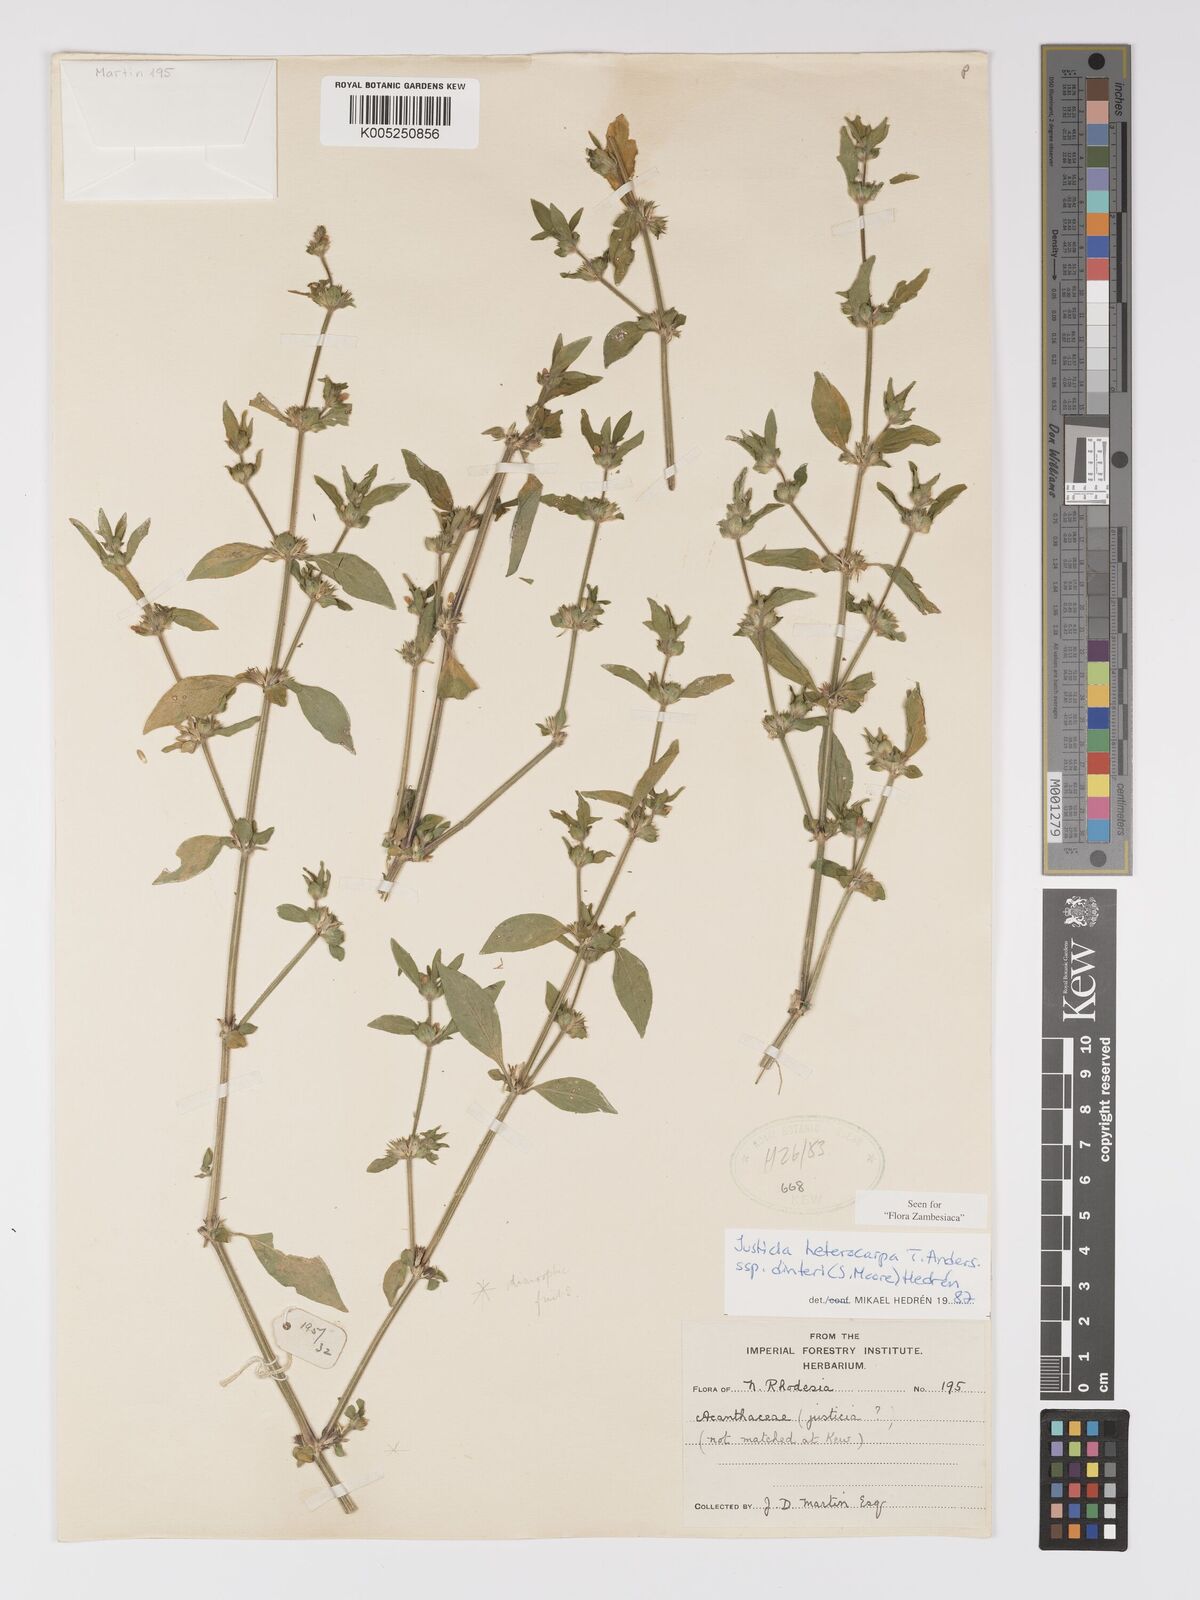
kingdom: Plantae
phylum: Tracheophyta
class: Magnoliopsida
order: Lamiales
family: Acanthaceae
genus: Justicia
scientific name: Justicia heterocarpa
